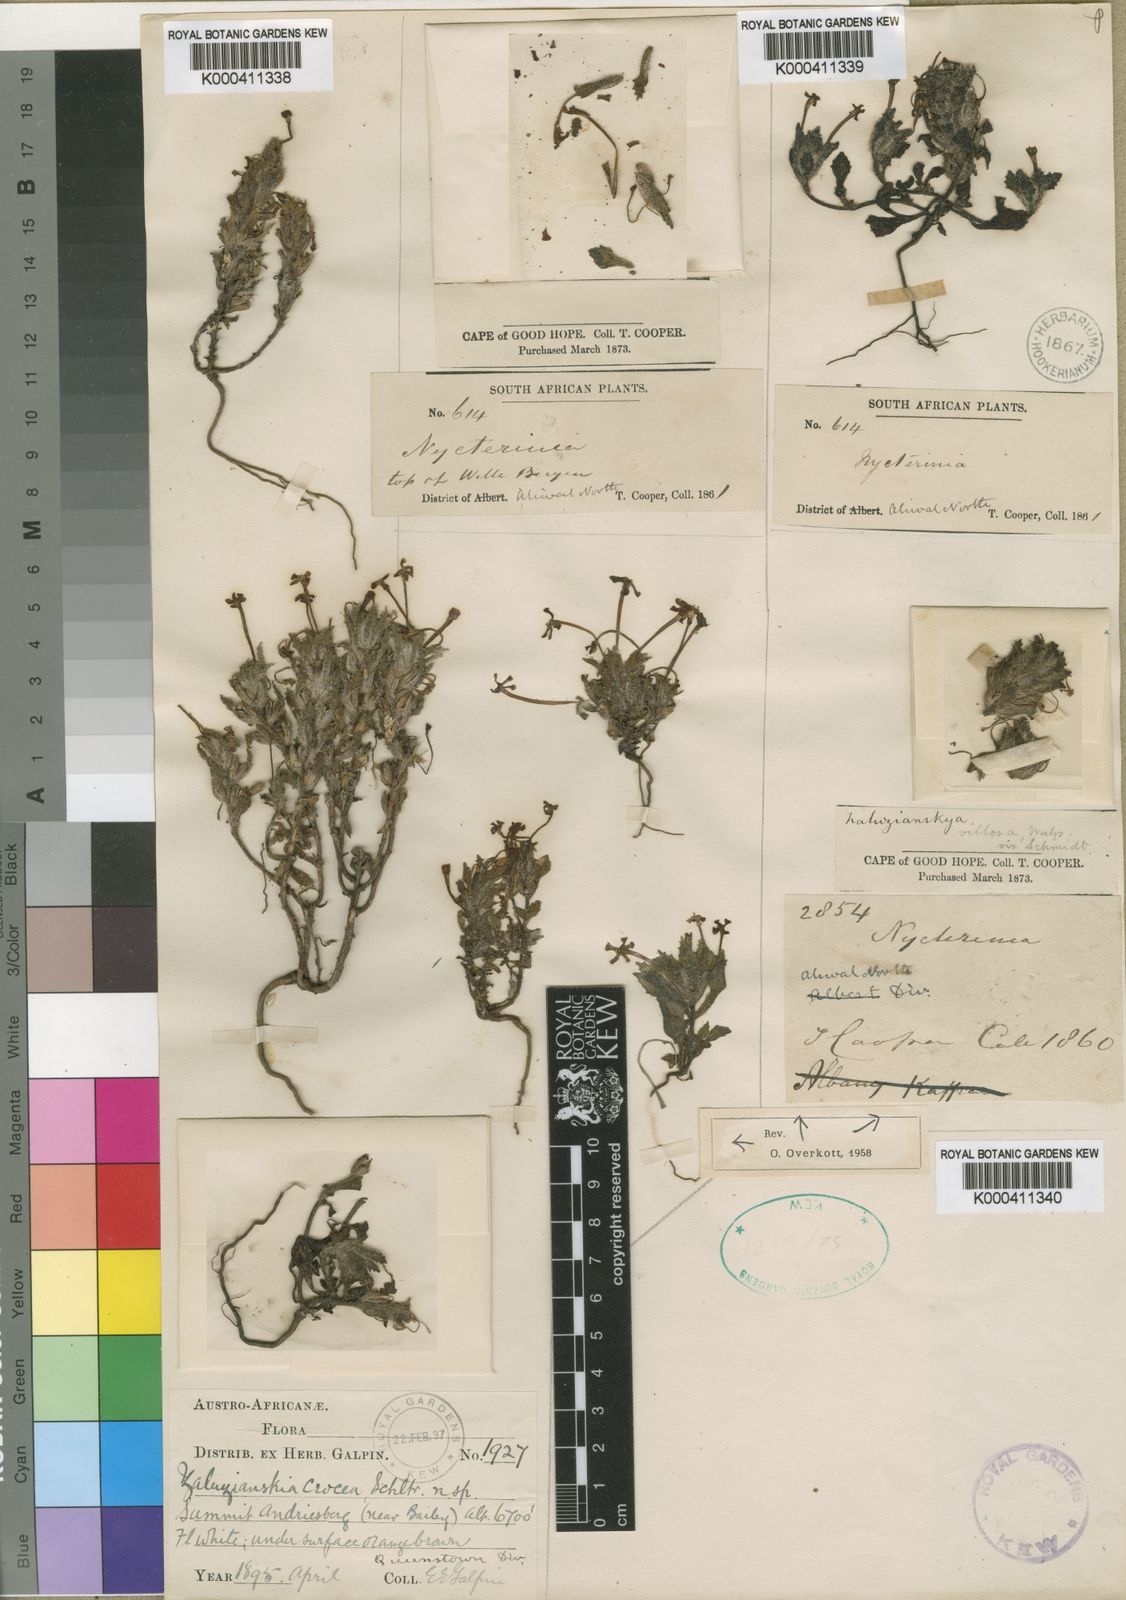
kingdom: Plantae
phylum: Tracheophyta
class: Magnoliopsida
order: Lamiales
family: Scrophulariaceae
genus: Zaluzianskya
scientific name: Zaluzianskya crocea
